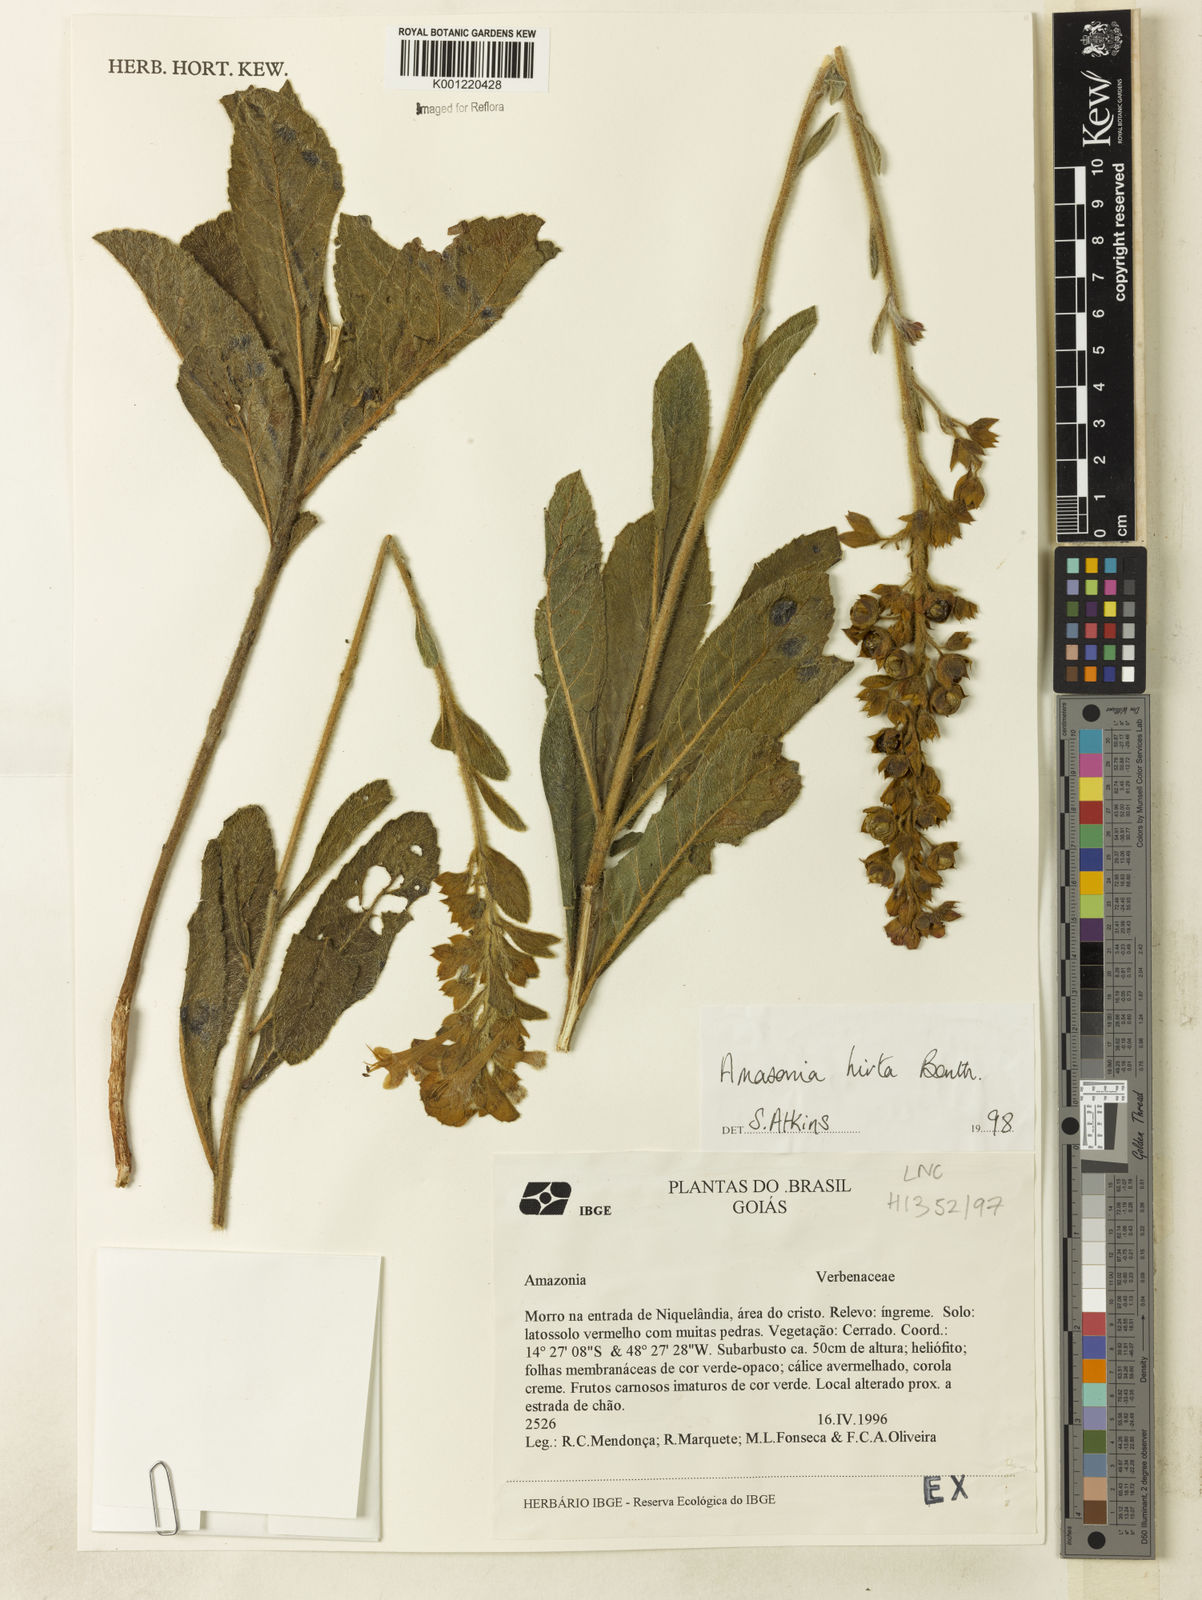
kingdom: Plantae
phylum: Tracheophyta
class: Magnoliopsida
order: Lamiales
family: Lamiaceae
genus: Amasonia
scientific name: Amasonia hirta
